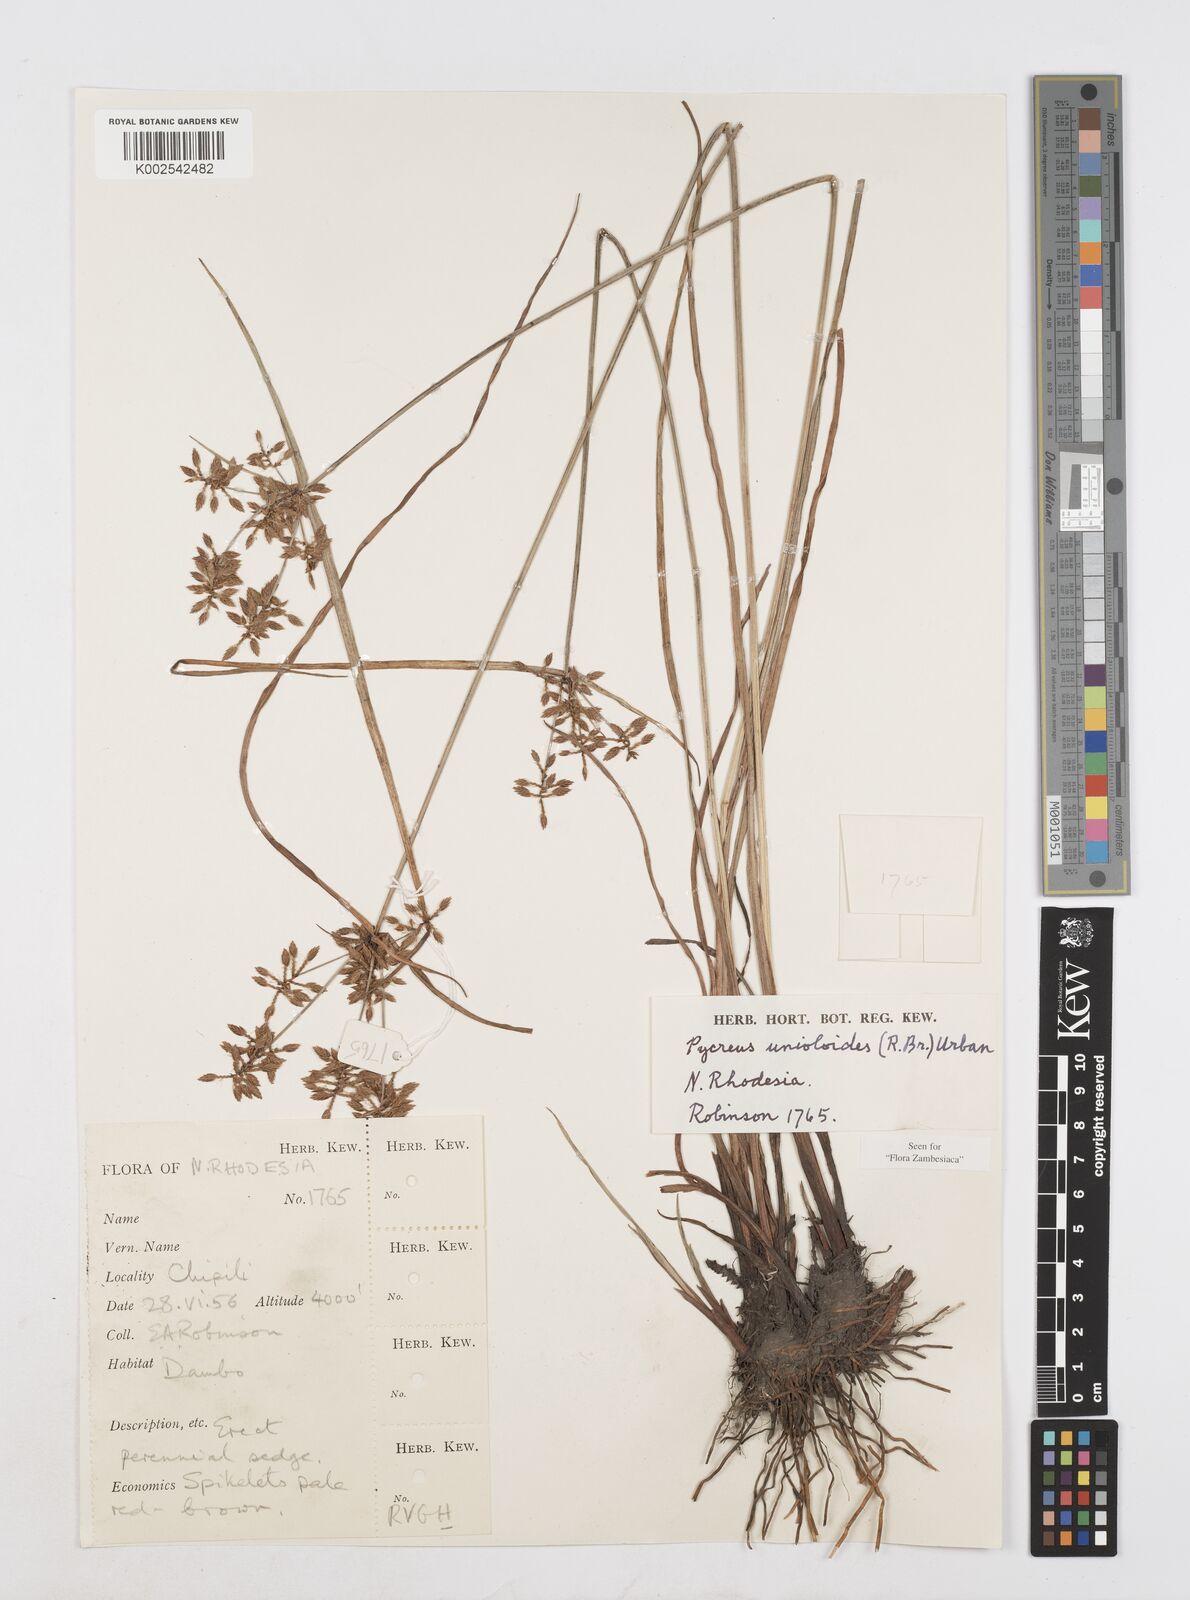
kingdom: Plantae
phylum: Tracheophyta
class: Liliopsida
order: Poales
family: Cyperaceae
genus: Cyperus
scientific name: Cyperus unioloides
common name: Uniola flatsedge
